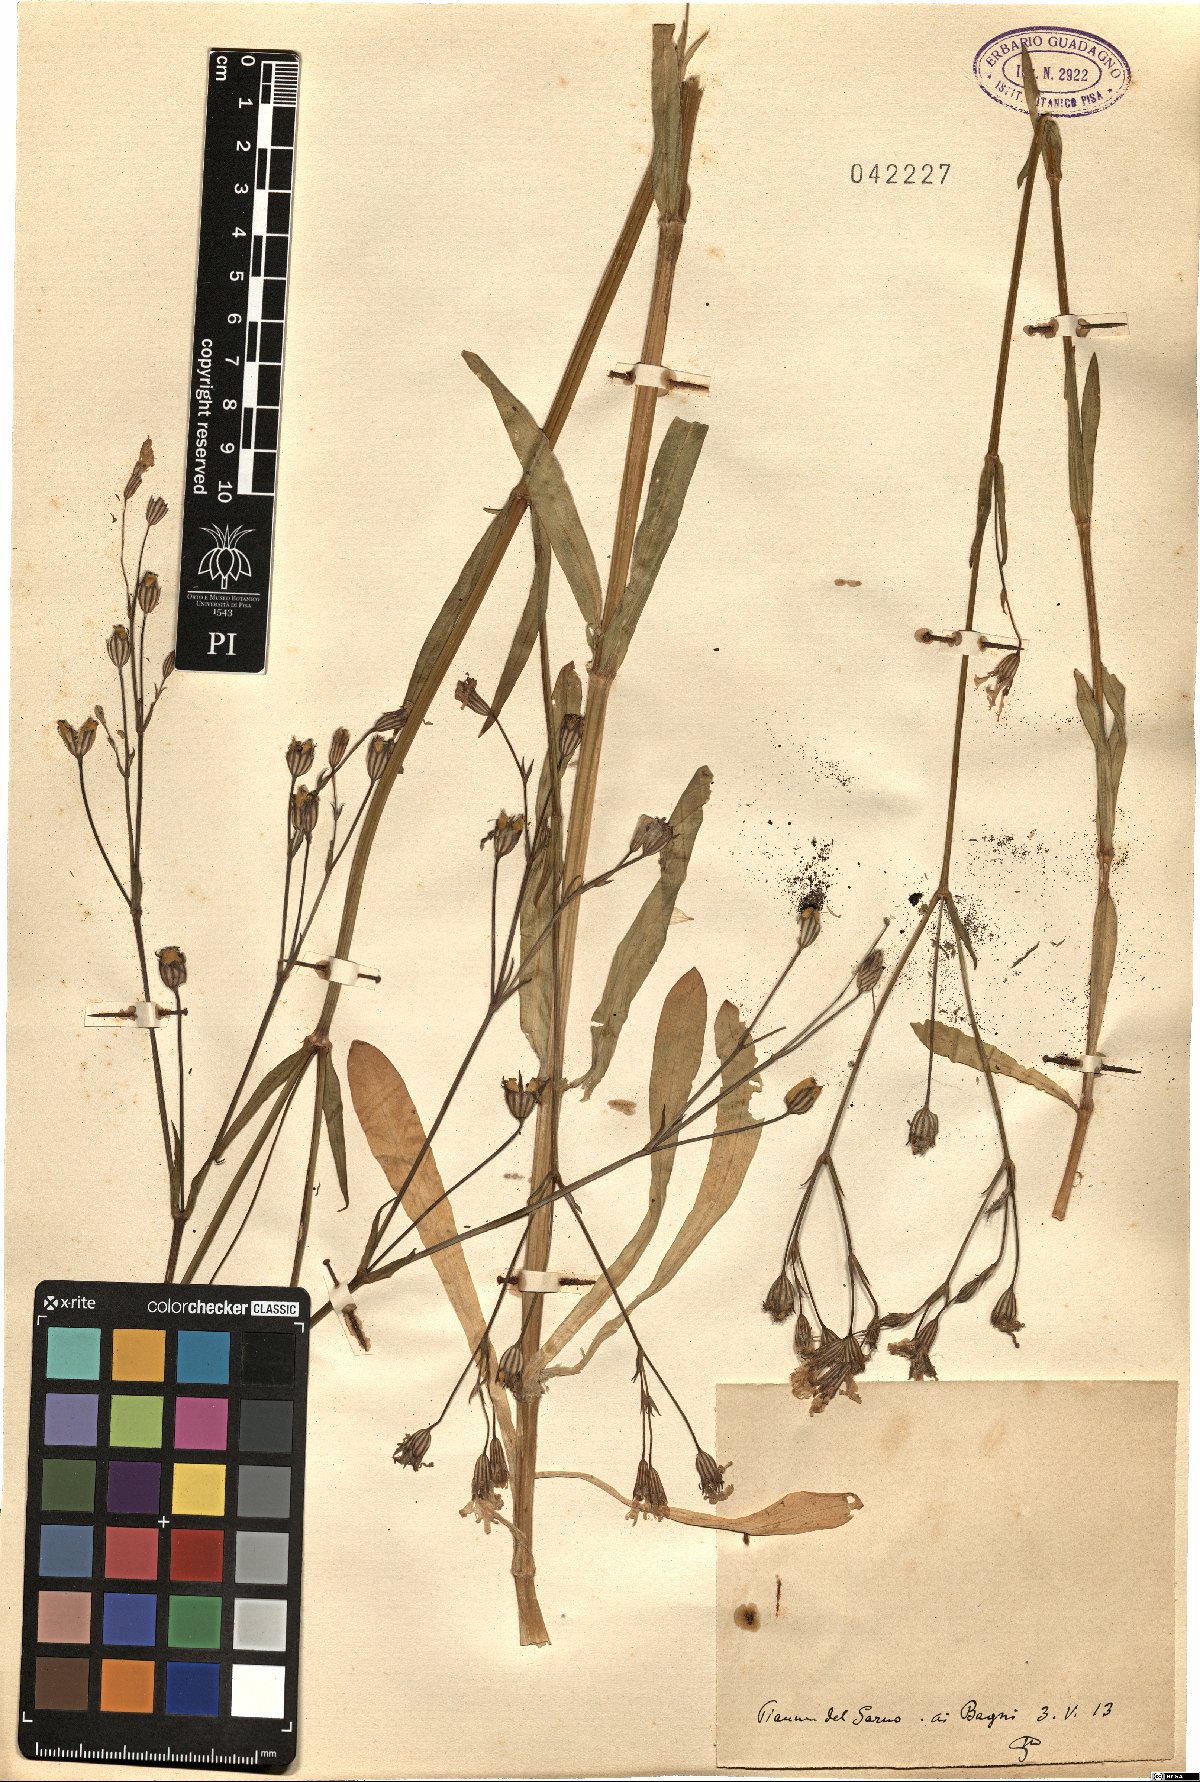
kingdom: Plantae
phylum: Tracheophyta
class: Magnoliopsida
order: Caryophyllales
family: Caryophyllaceae
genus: Silene
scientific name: Silene
